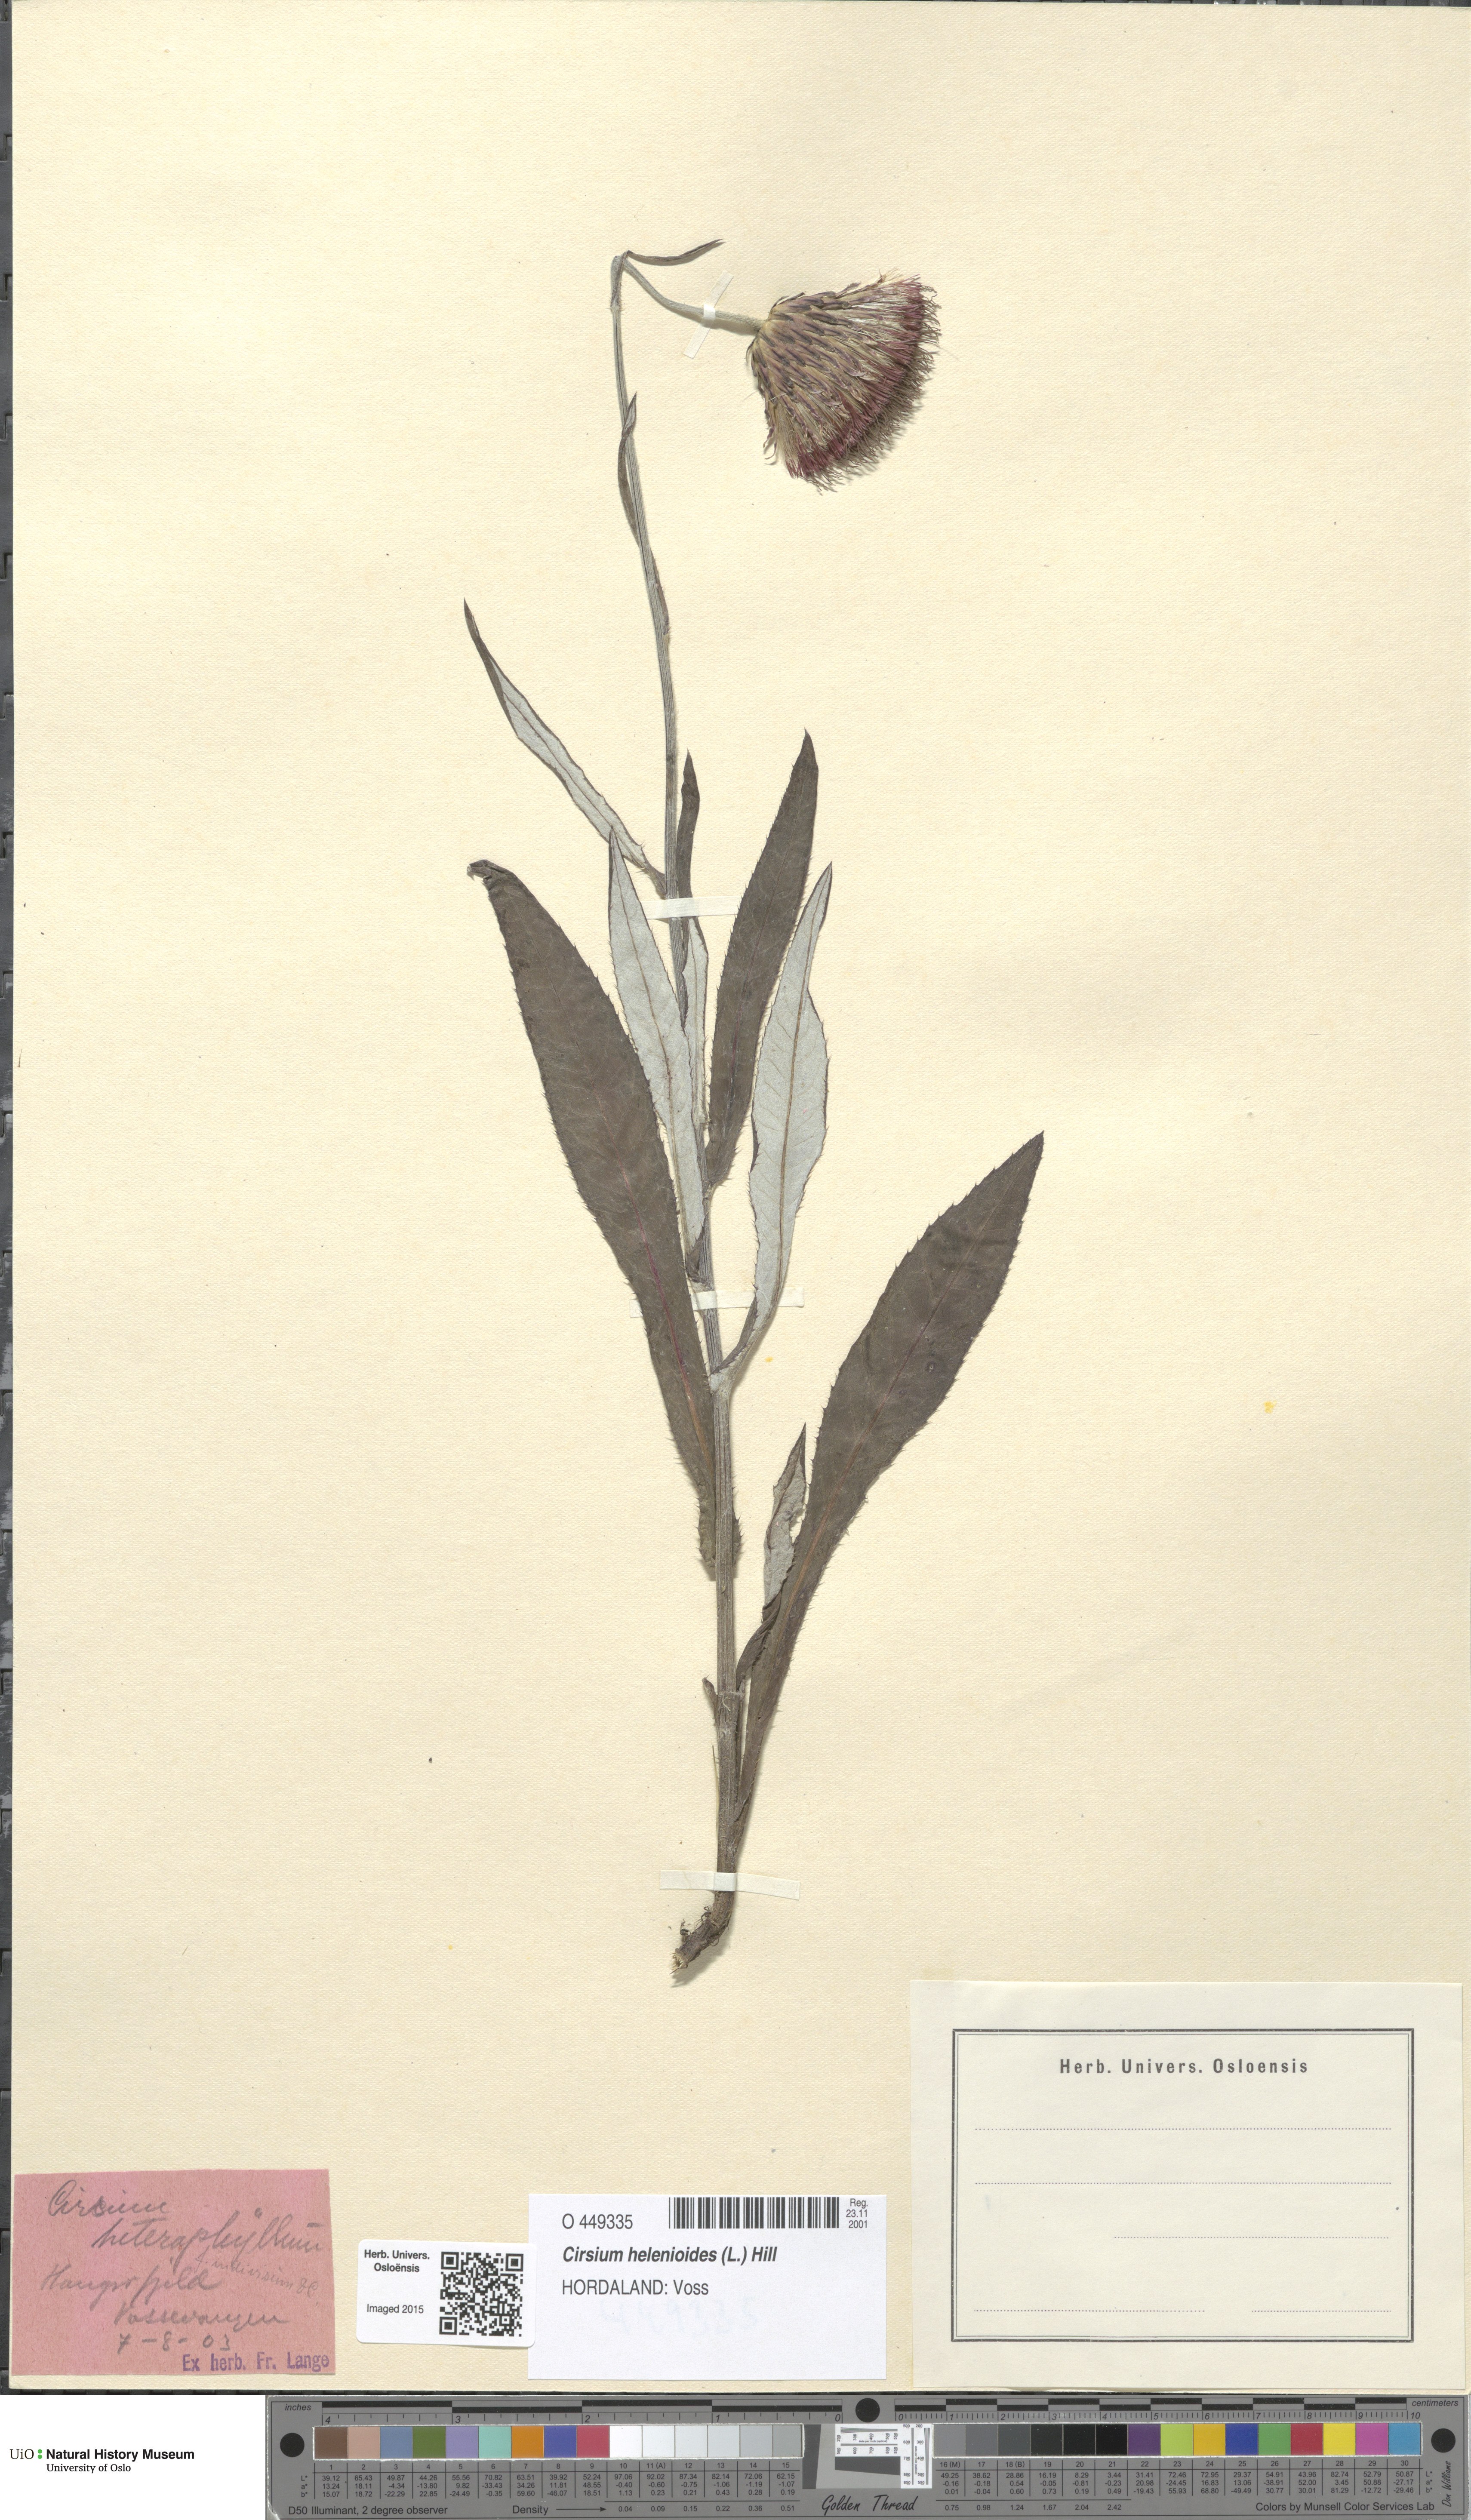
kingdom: Plantae
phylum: Tracheophyta
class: Magnoliopsida
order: Asterales
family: Asteraceae
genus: Cirsium
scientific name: Cirsium heterophyllum
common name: Melancholy thistle
